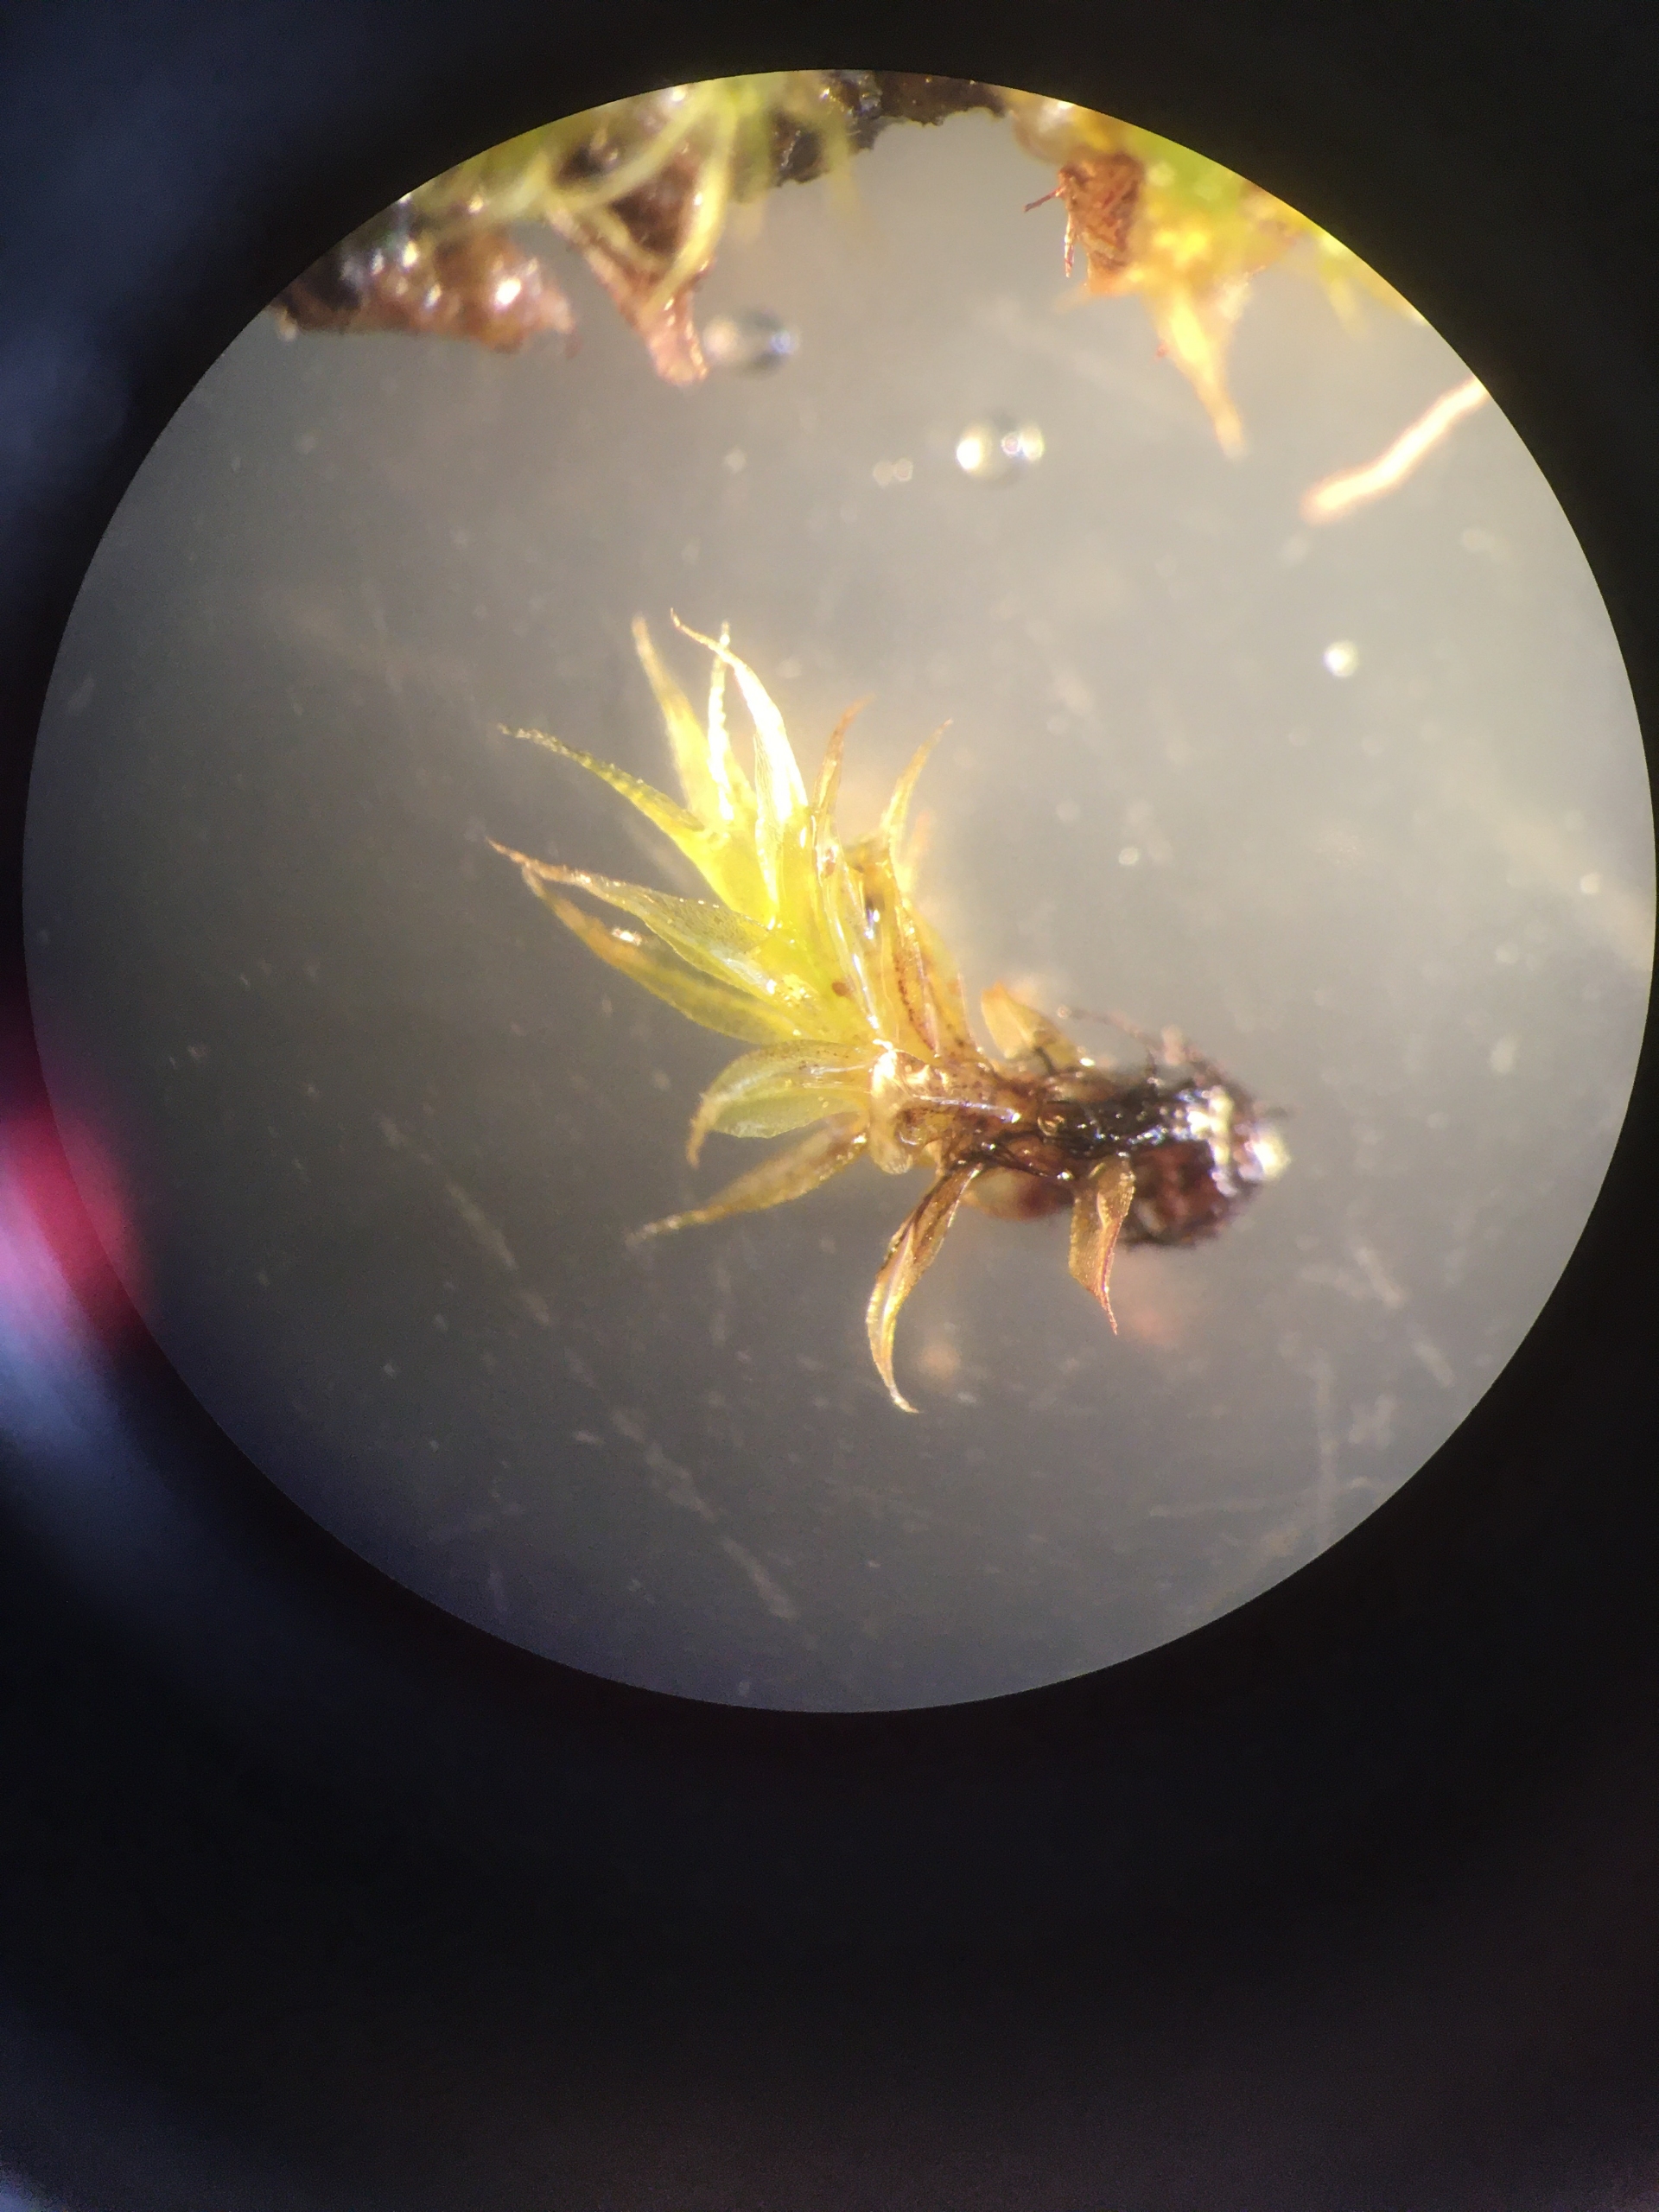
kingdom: Plantae
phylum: Bryophyta
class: Bryopsida
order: Splachnales
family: Splachnaceae
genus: Splachnum
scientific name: Splachnum ampullaceum
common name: Pære-møgmos
